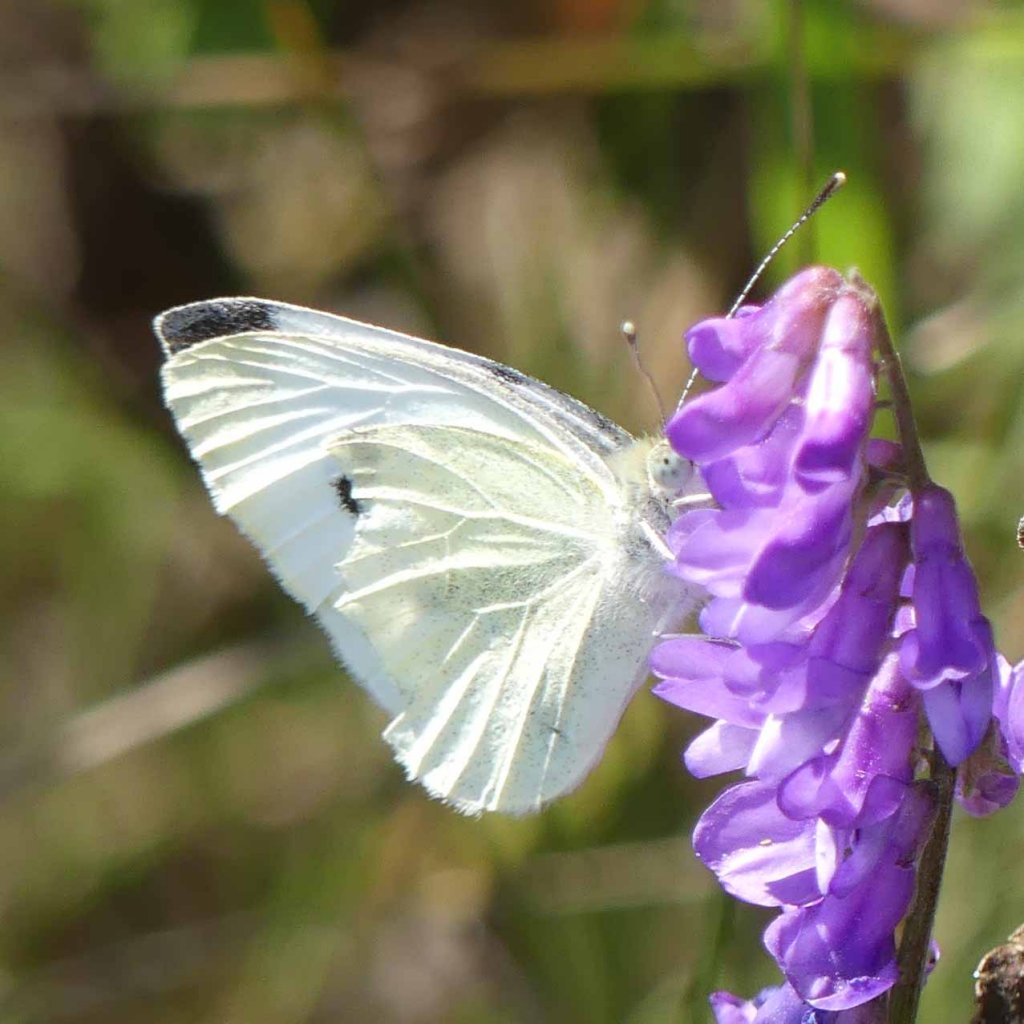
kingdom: Animalia
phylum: Arthropoda
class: Insecta
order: Lepidoptera
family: Pieridae
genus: Pieris
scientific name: Pieris rapae
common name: Cabbage White
